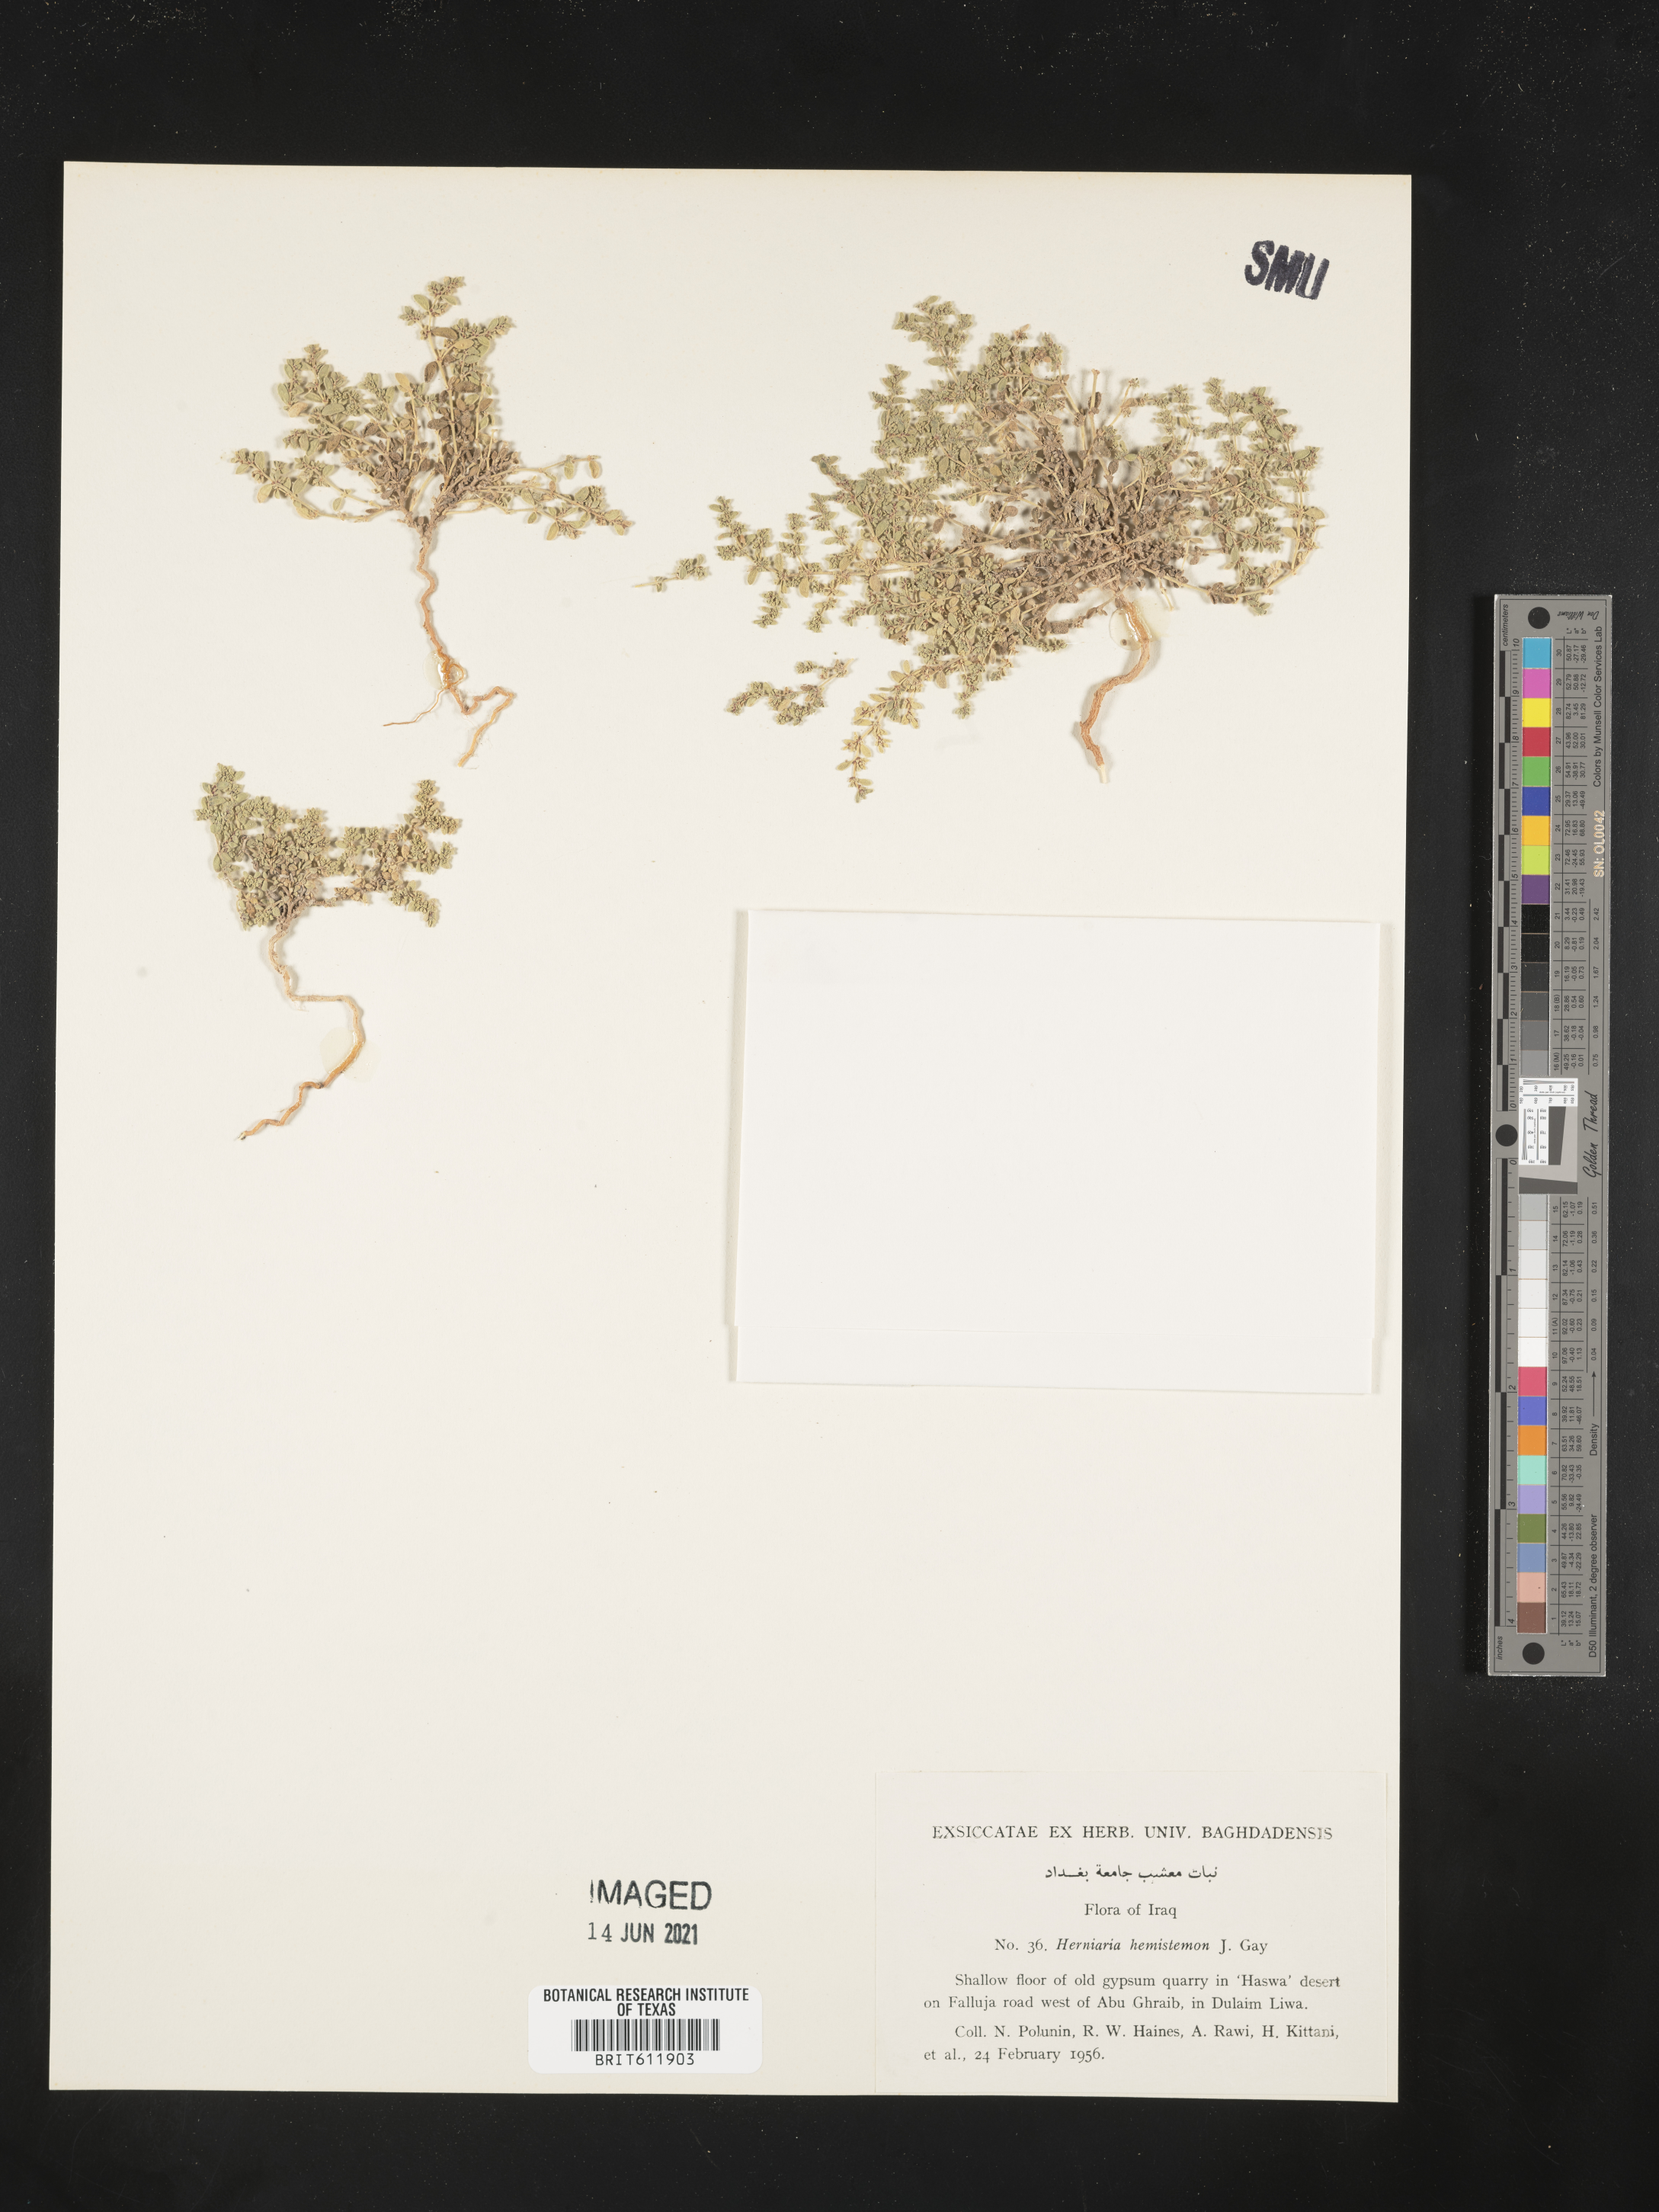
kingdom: Plantae
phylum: Tracheophyta
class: Magnoliopsida
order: Caryophyllales
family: Caryophyllaceae
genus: Herniaria
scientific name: Herniaria hemistemon
